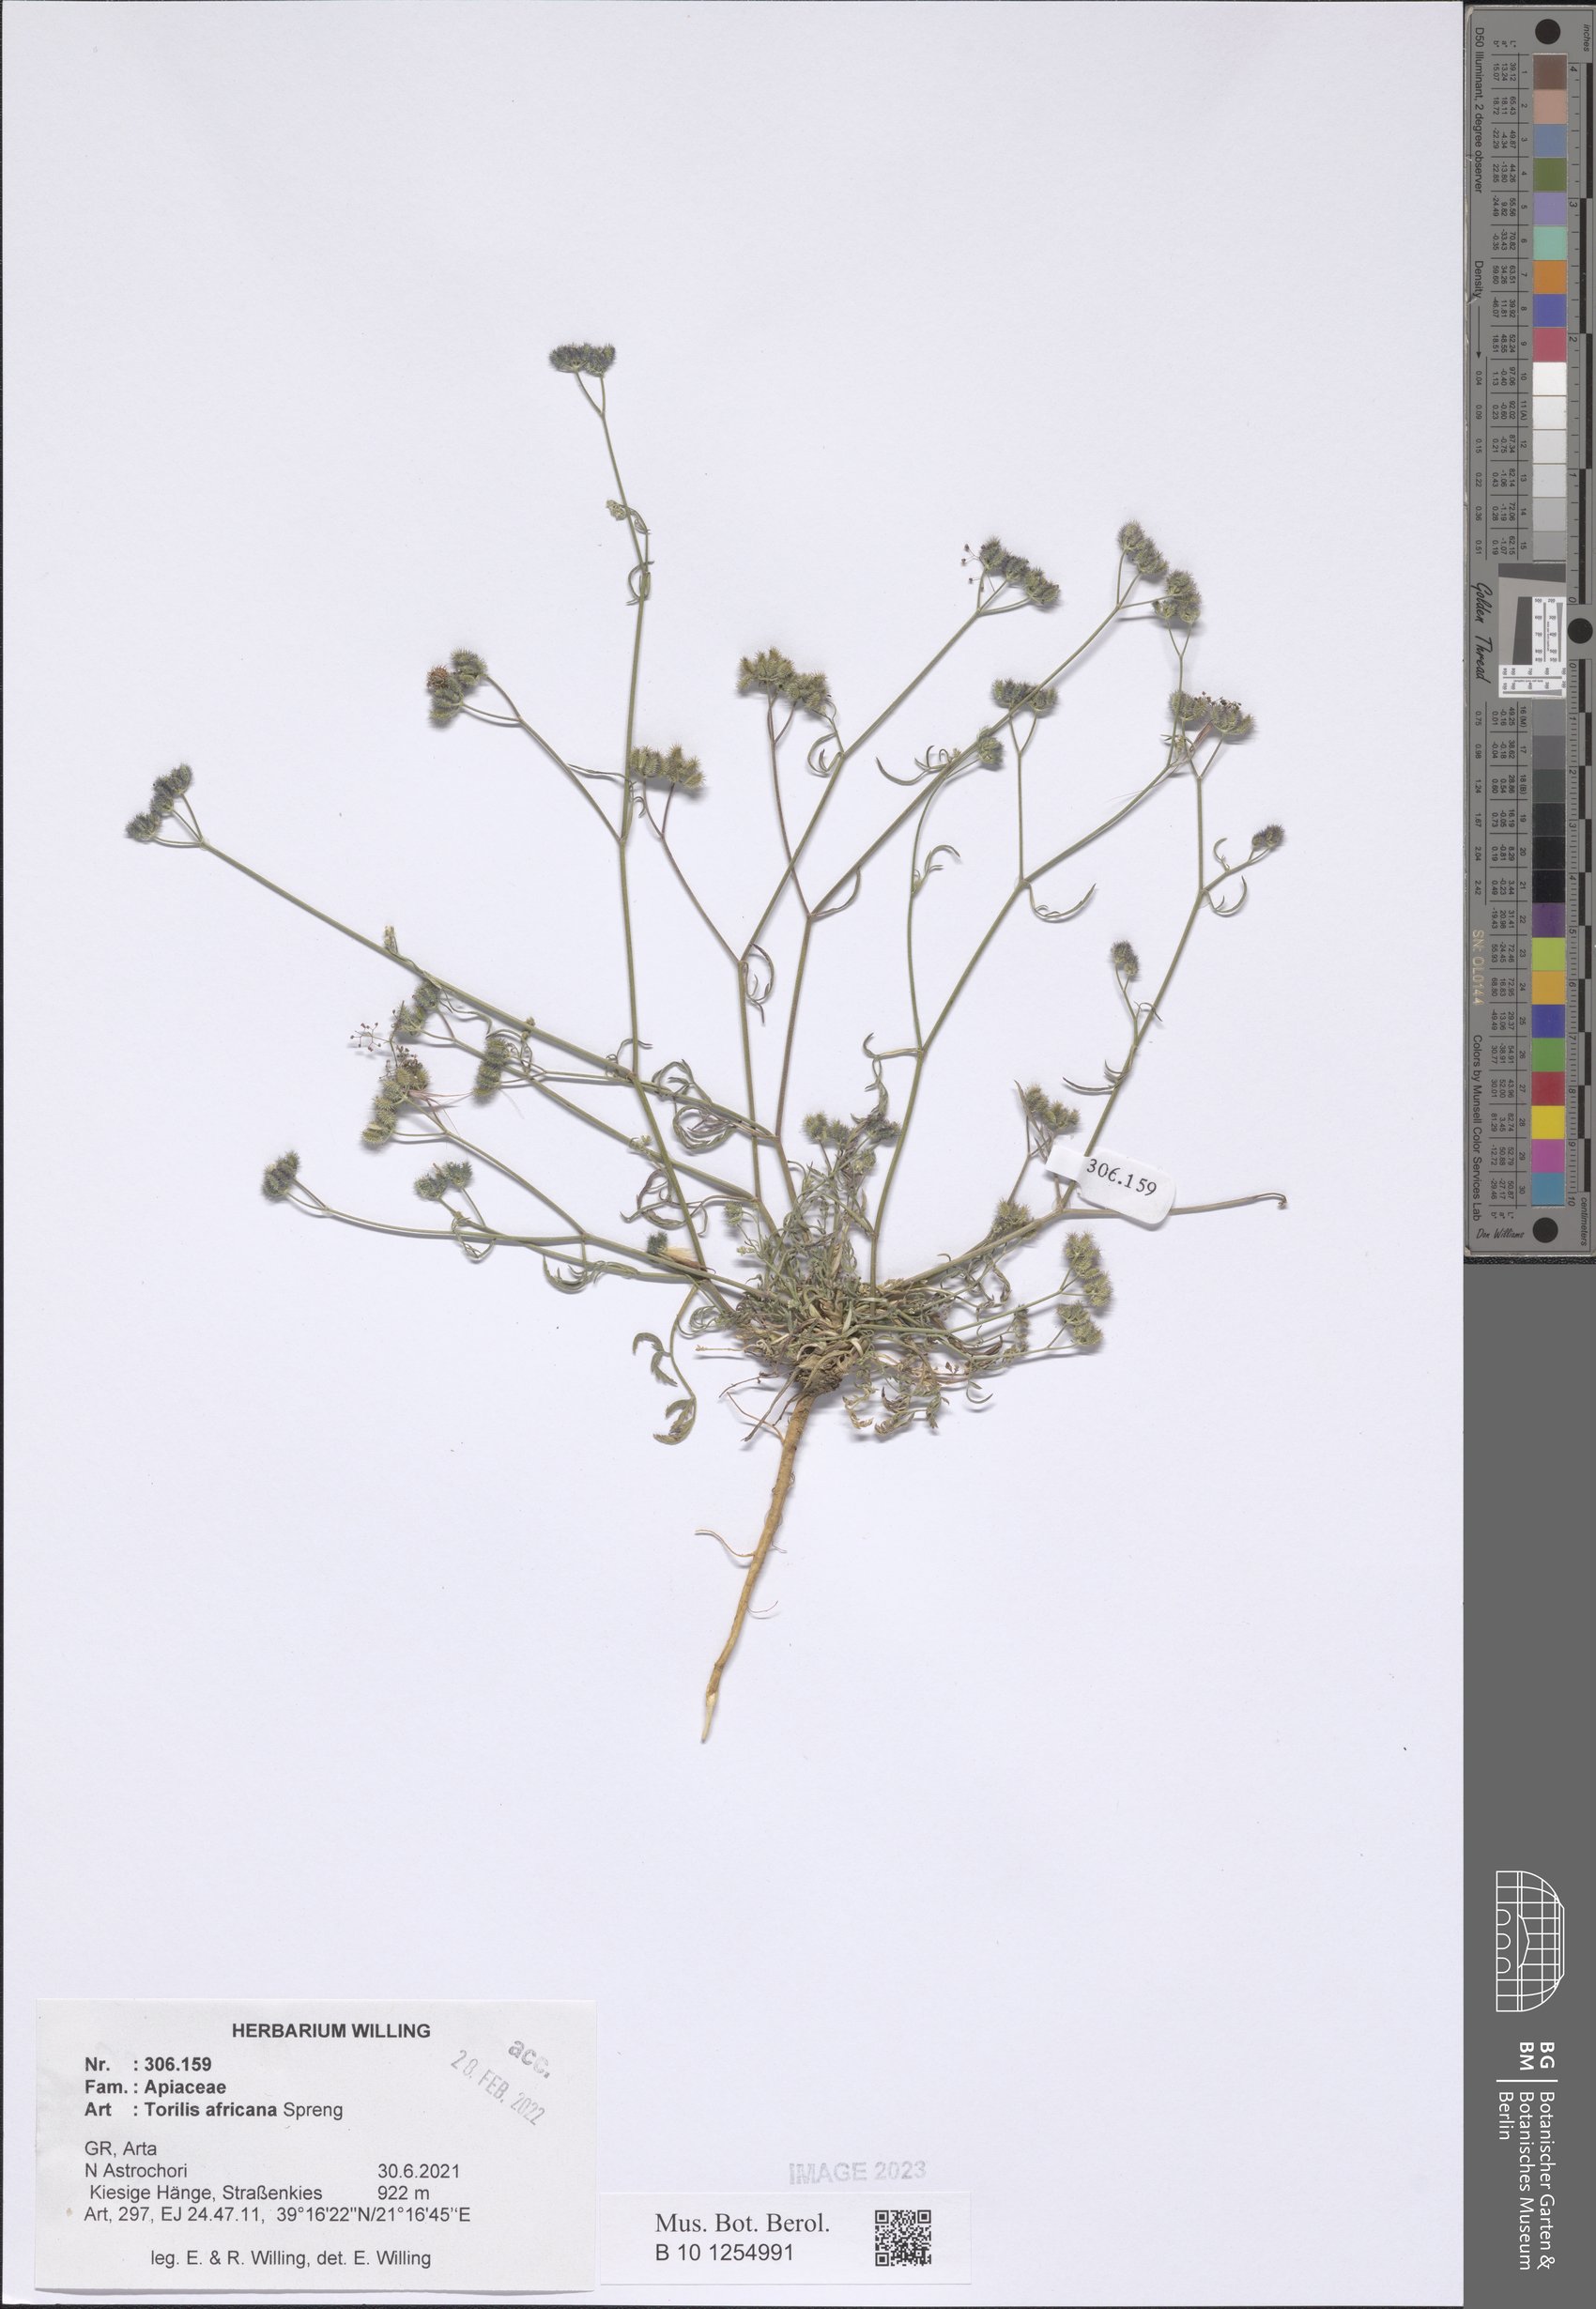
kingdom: Plantae
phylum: Tracheophyta
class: Magnoliopsida
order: Apiales
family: Apiaceae
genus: Torilis
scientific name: Torilis africana
